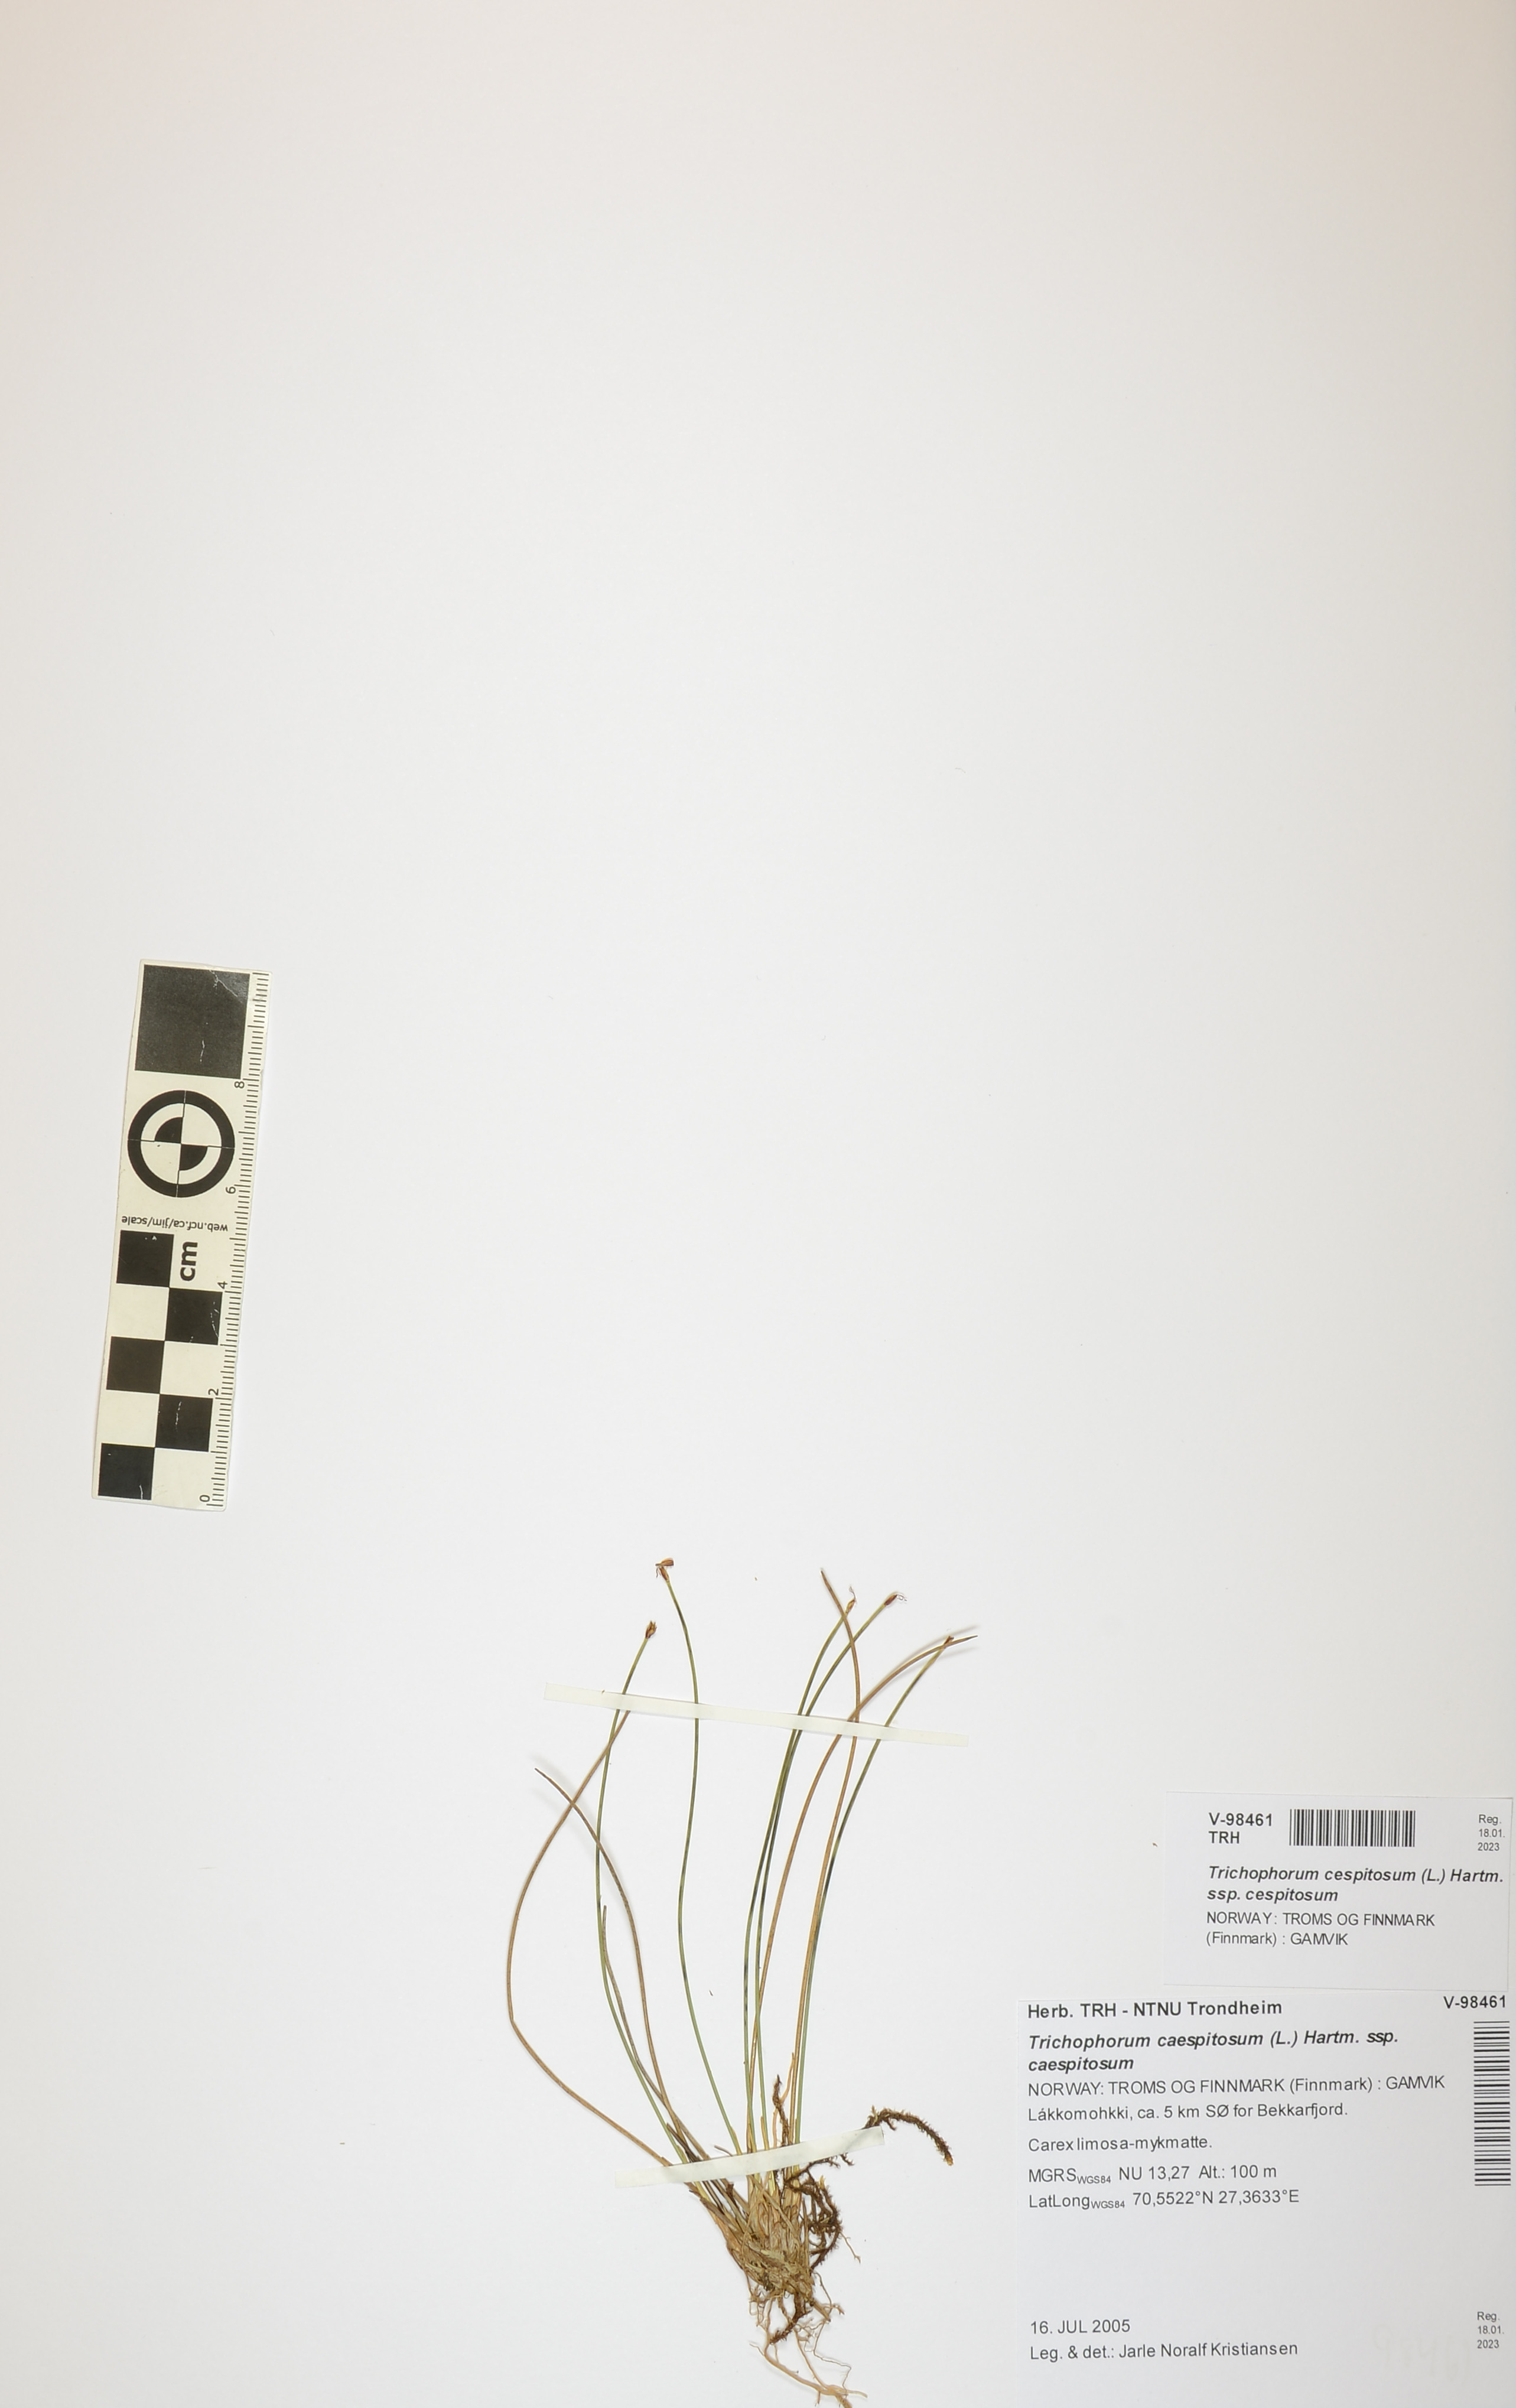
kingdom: Plantae
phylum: Tracheophyta
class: Liliopsida
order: Poales
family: Cyperaceae
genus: Trichophorum
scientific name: Trichophorum cespitosum
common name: Cespitose bulrush
